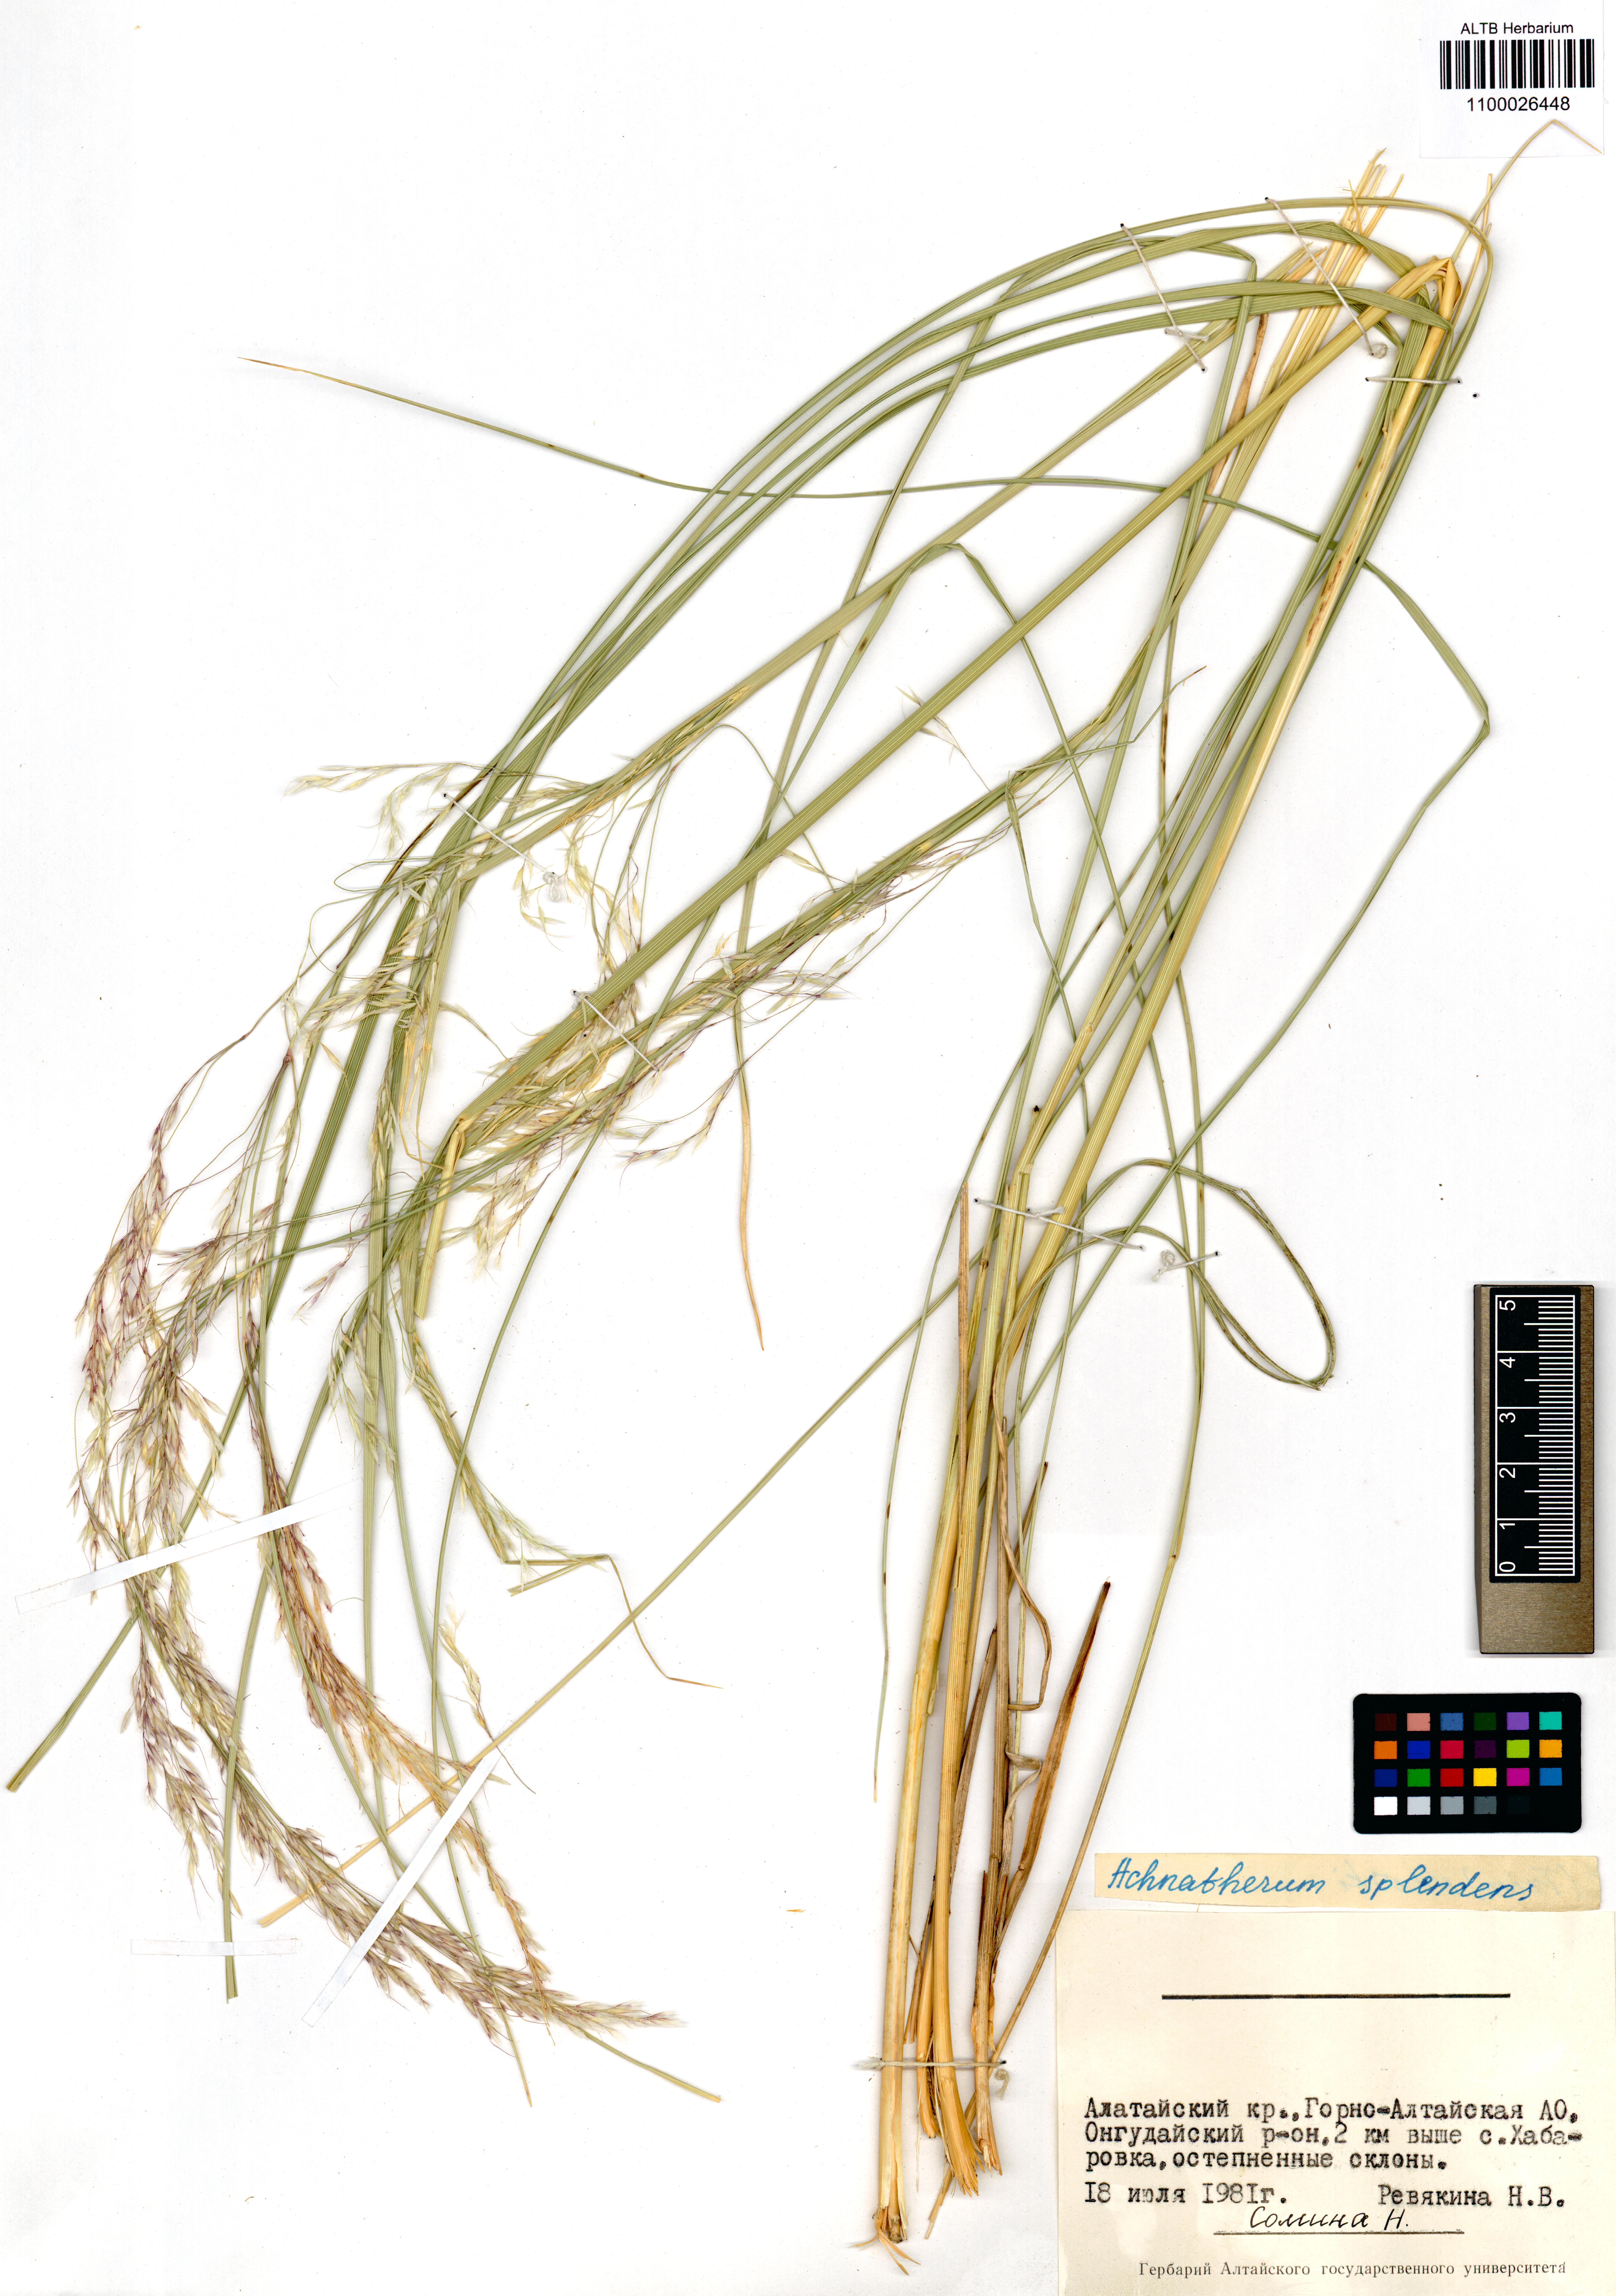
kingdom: Plantae
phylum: Tracheophyta
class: Liliopsida
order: Poales
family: Poaceae
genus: Neotrinia
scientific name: Neotrinia splendens
